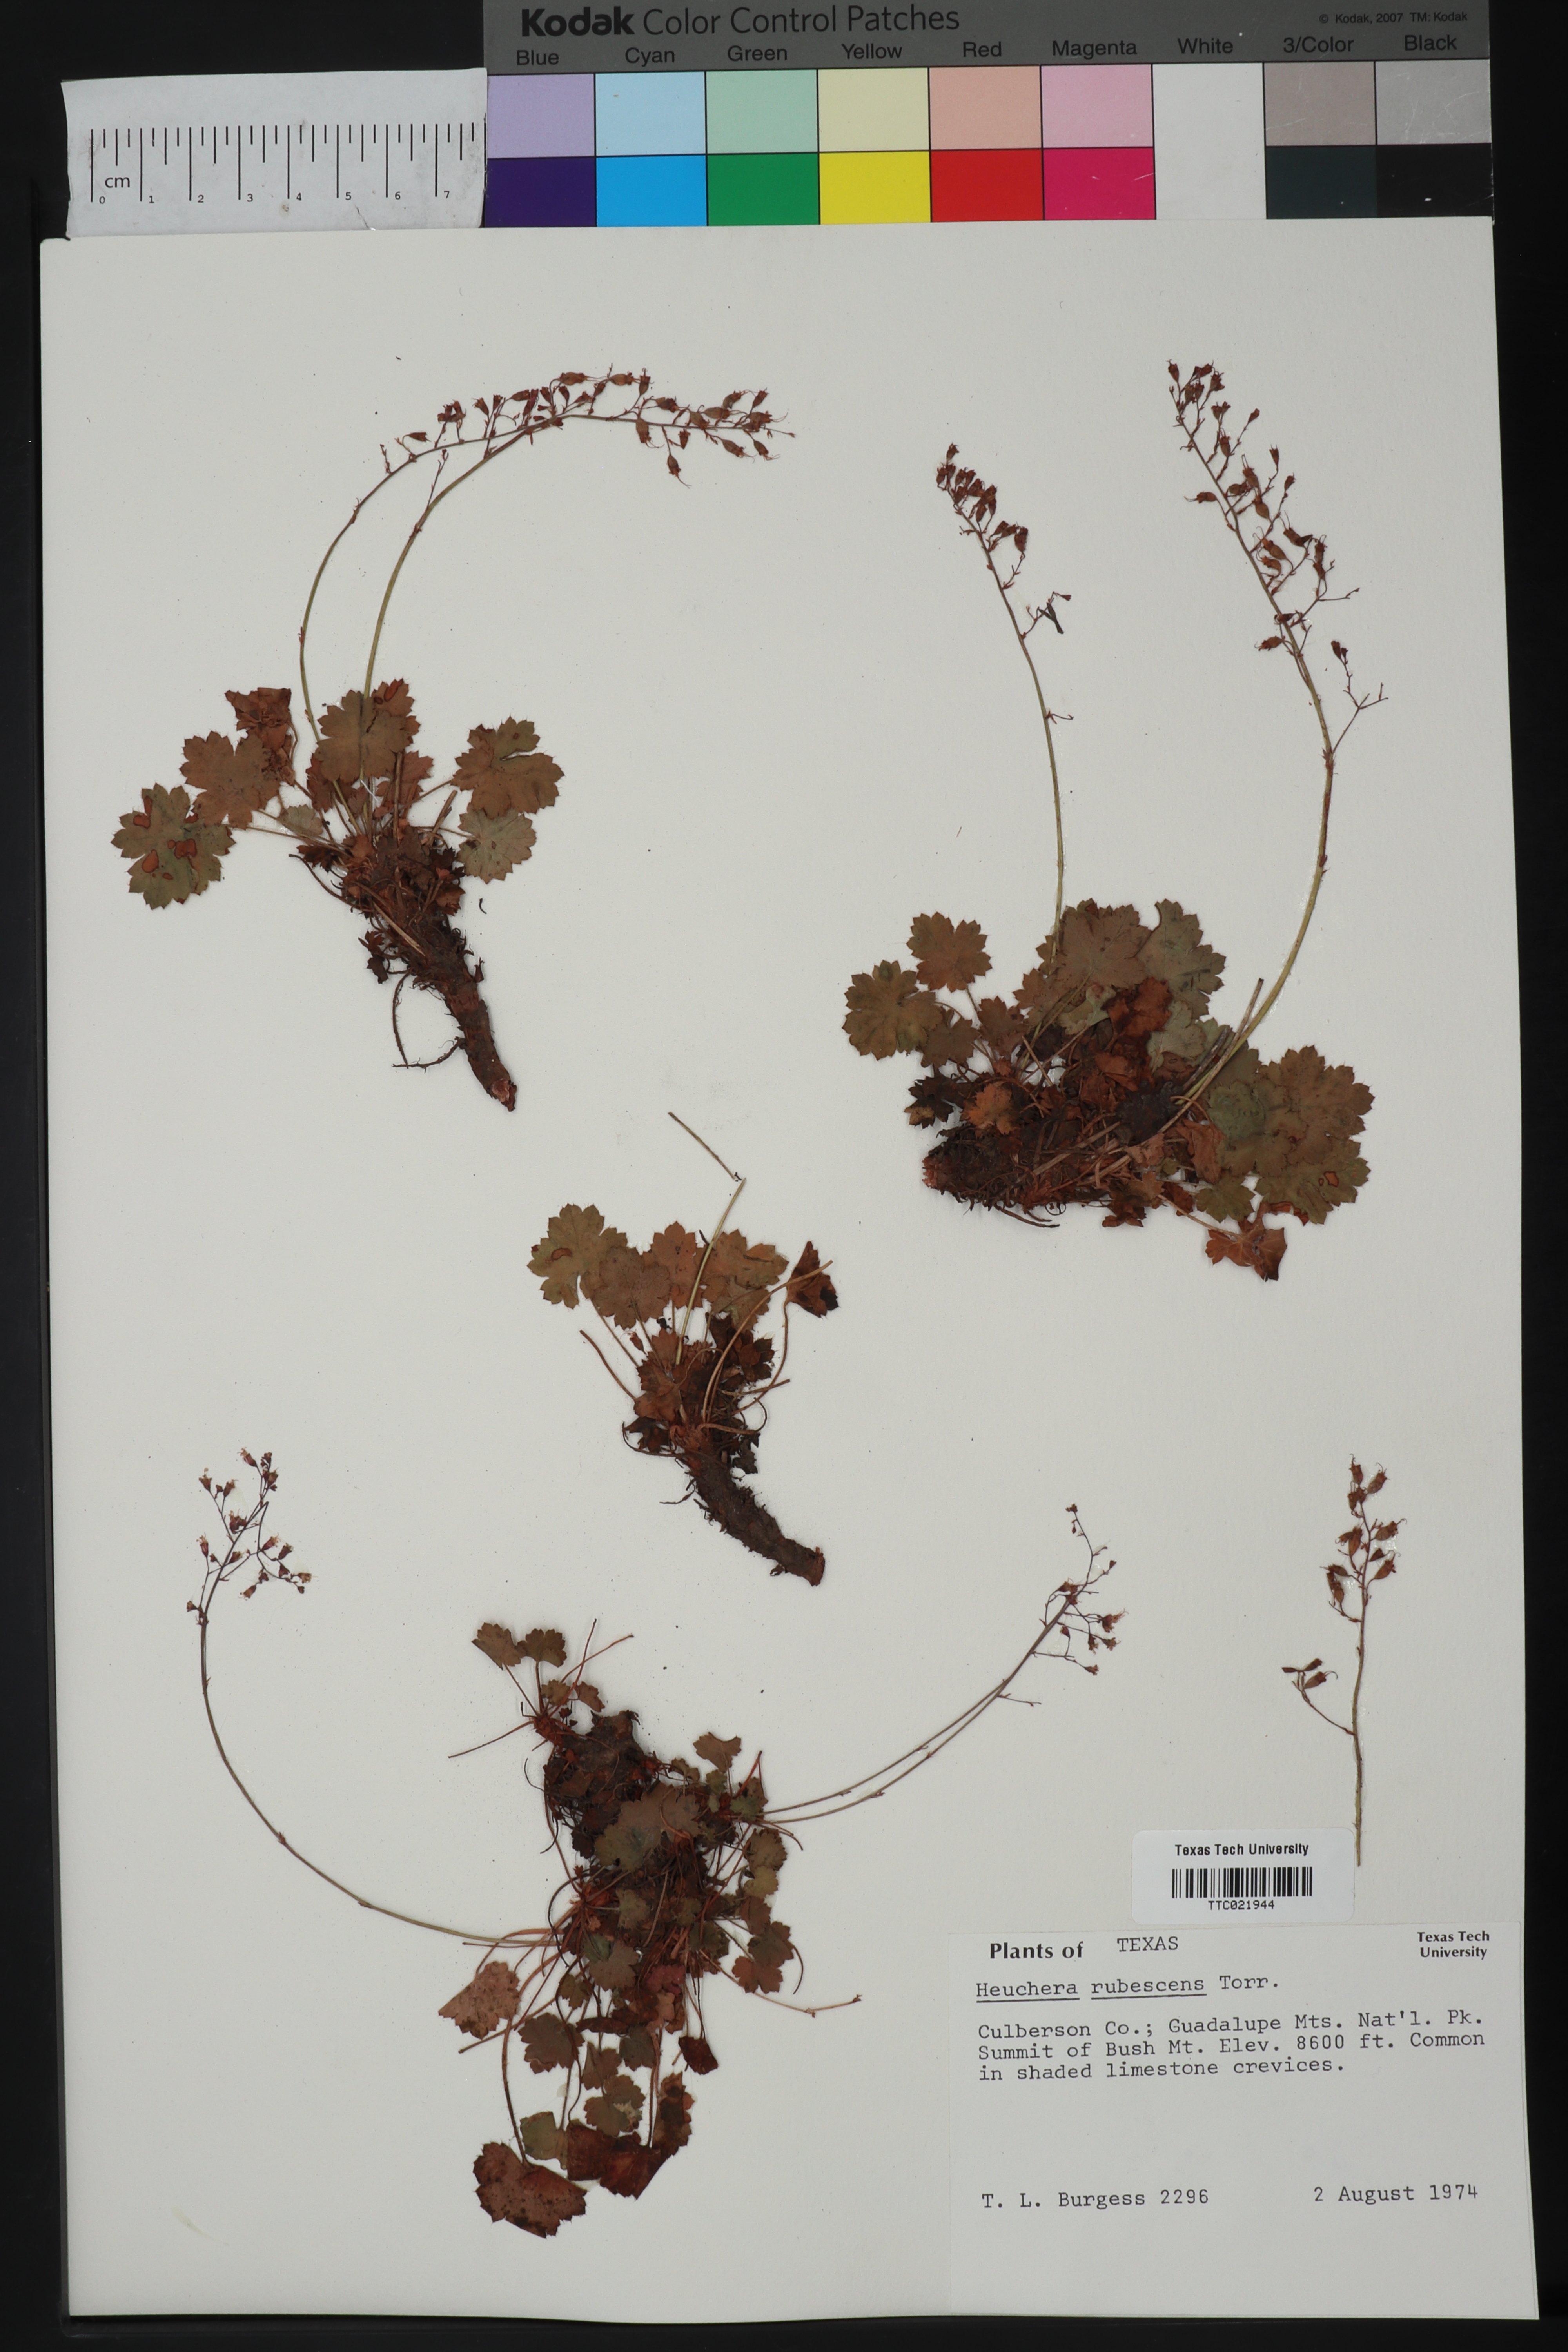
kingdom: Plantae
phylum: Tracheophyta
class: Magnoliopsida
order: Saxifragales
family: Saxifragaceae
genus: Heuchera
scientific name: Heuchera rubescens
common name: Jack-o'the-rocks
